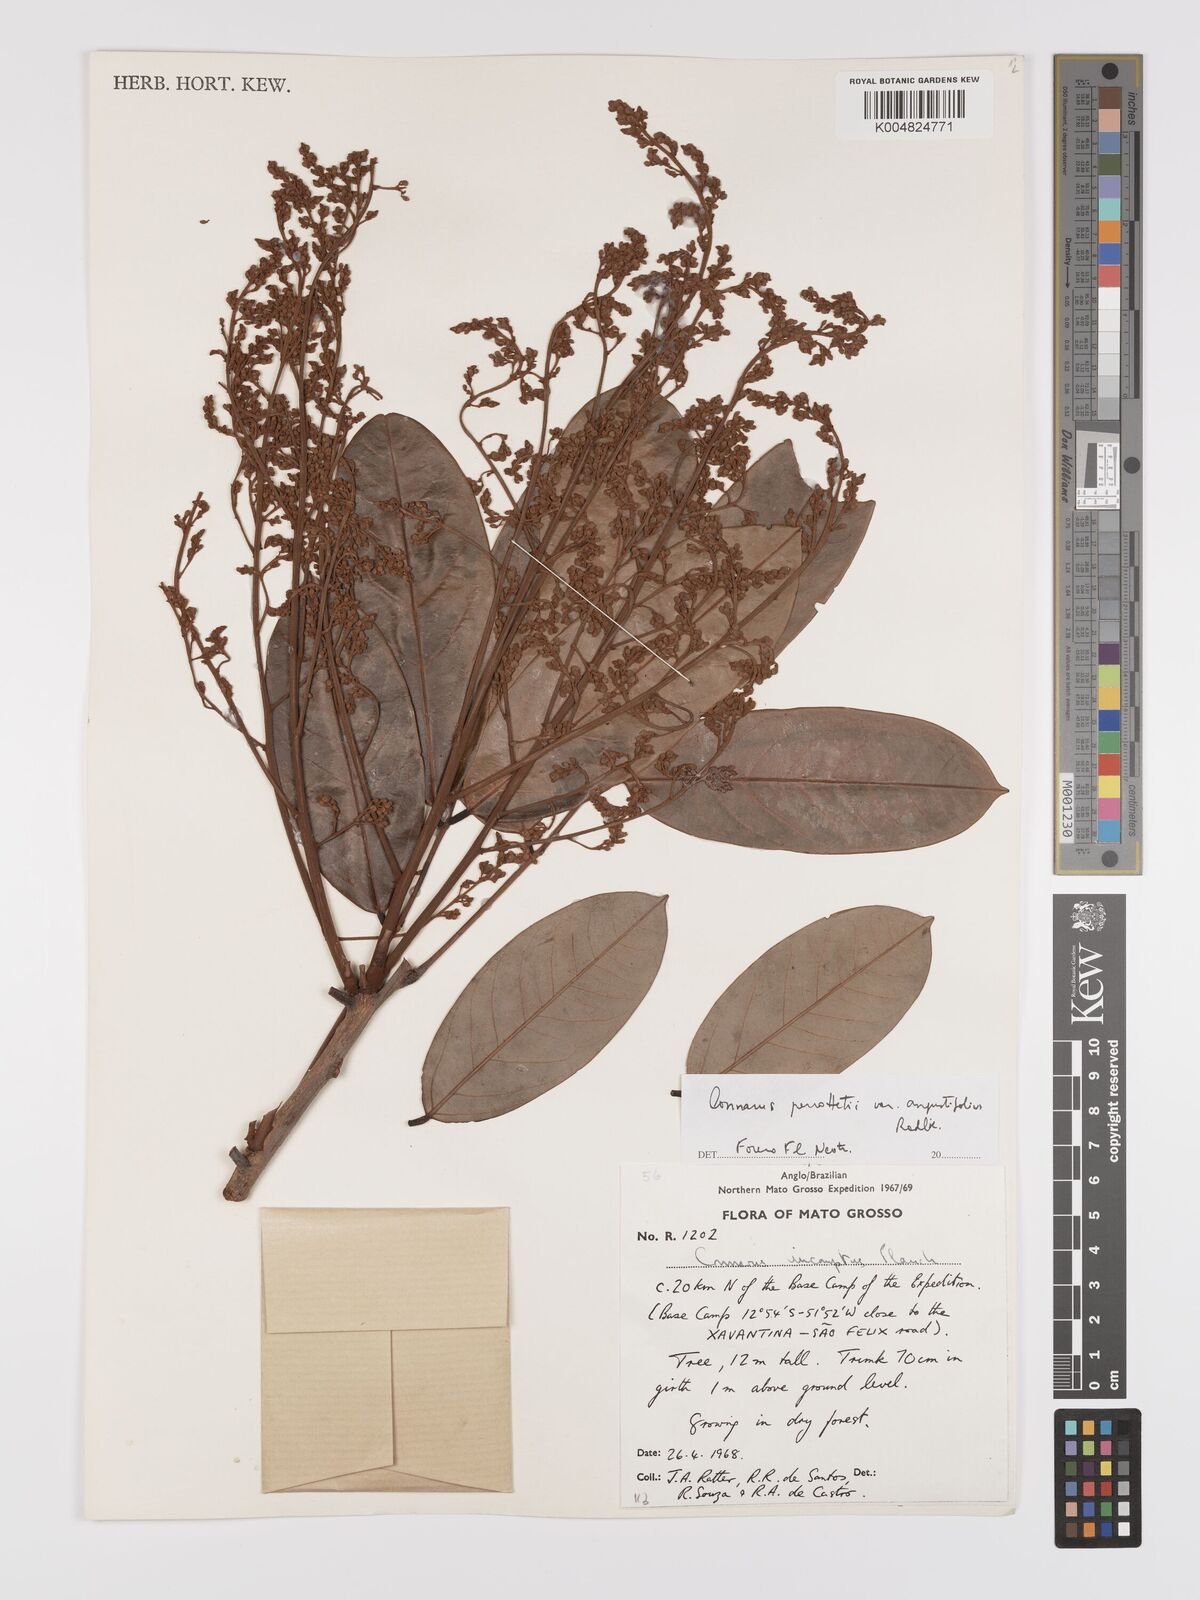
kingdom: Plantae
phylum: Tracheophyta
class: Magnoliopsida
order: Oxalidales
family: Connaraceae
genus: Connarus
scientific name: Connarus perrottetii
